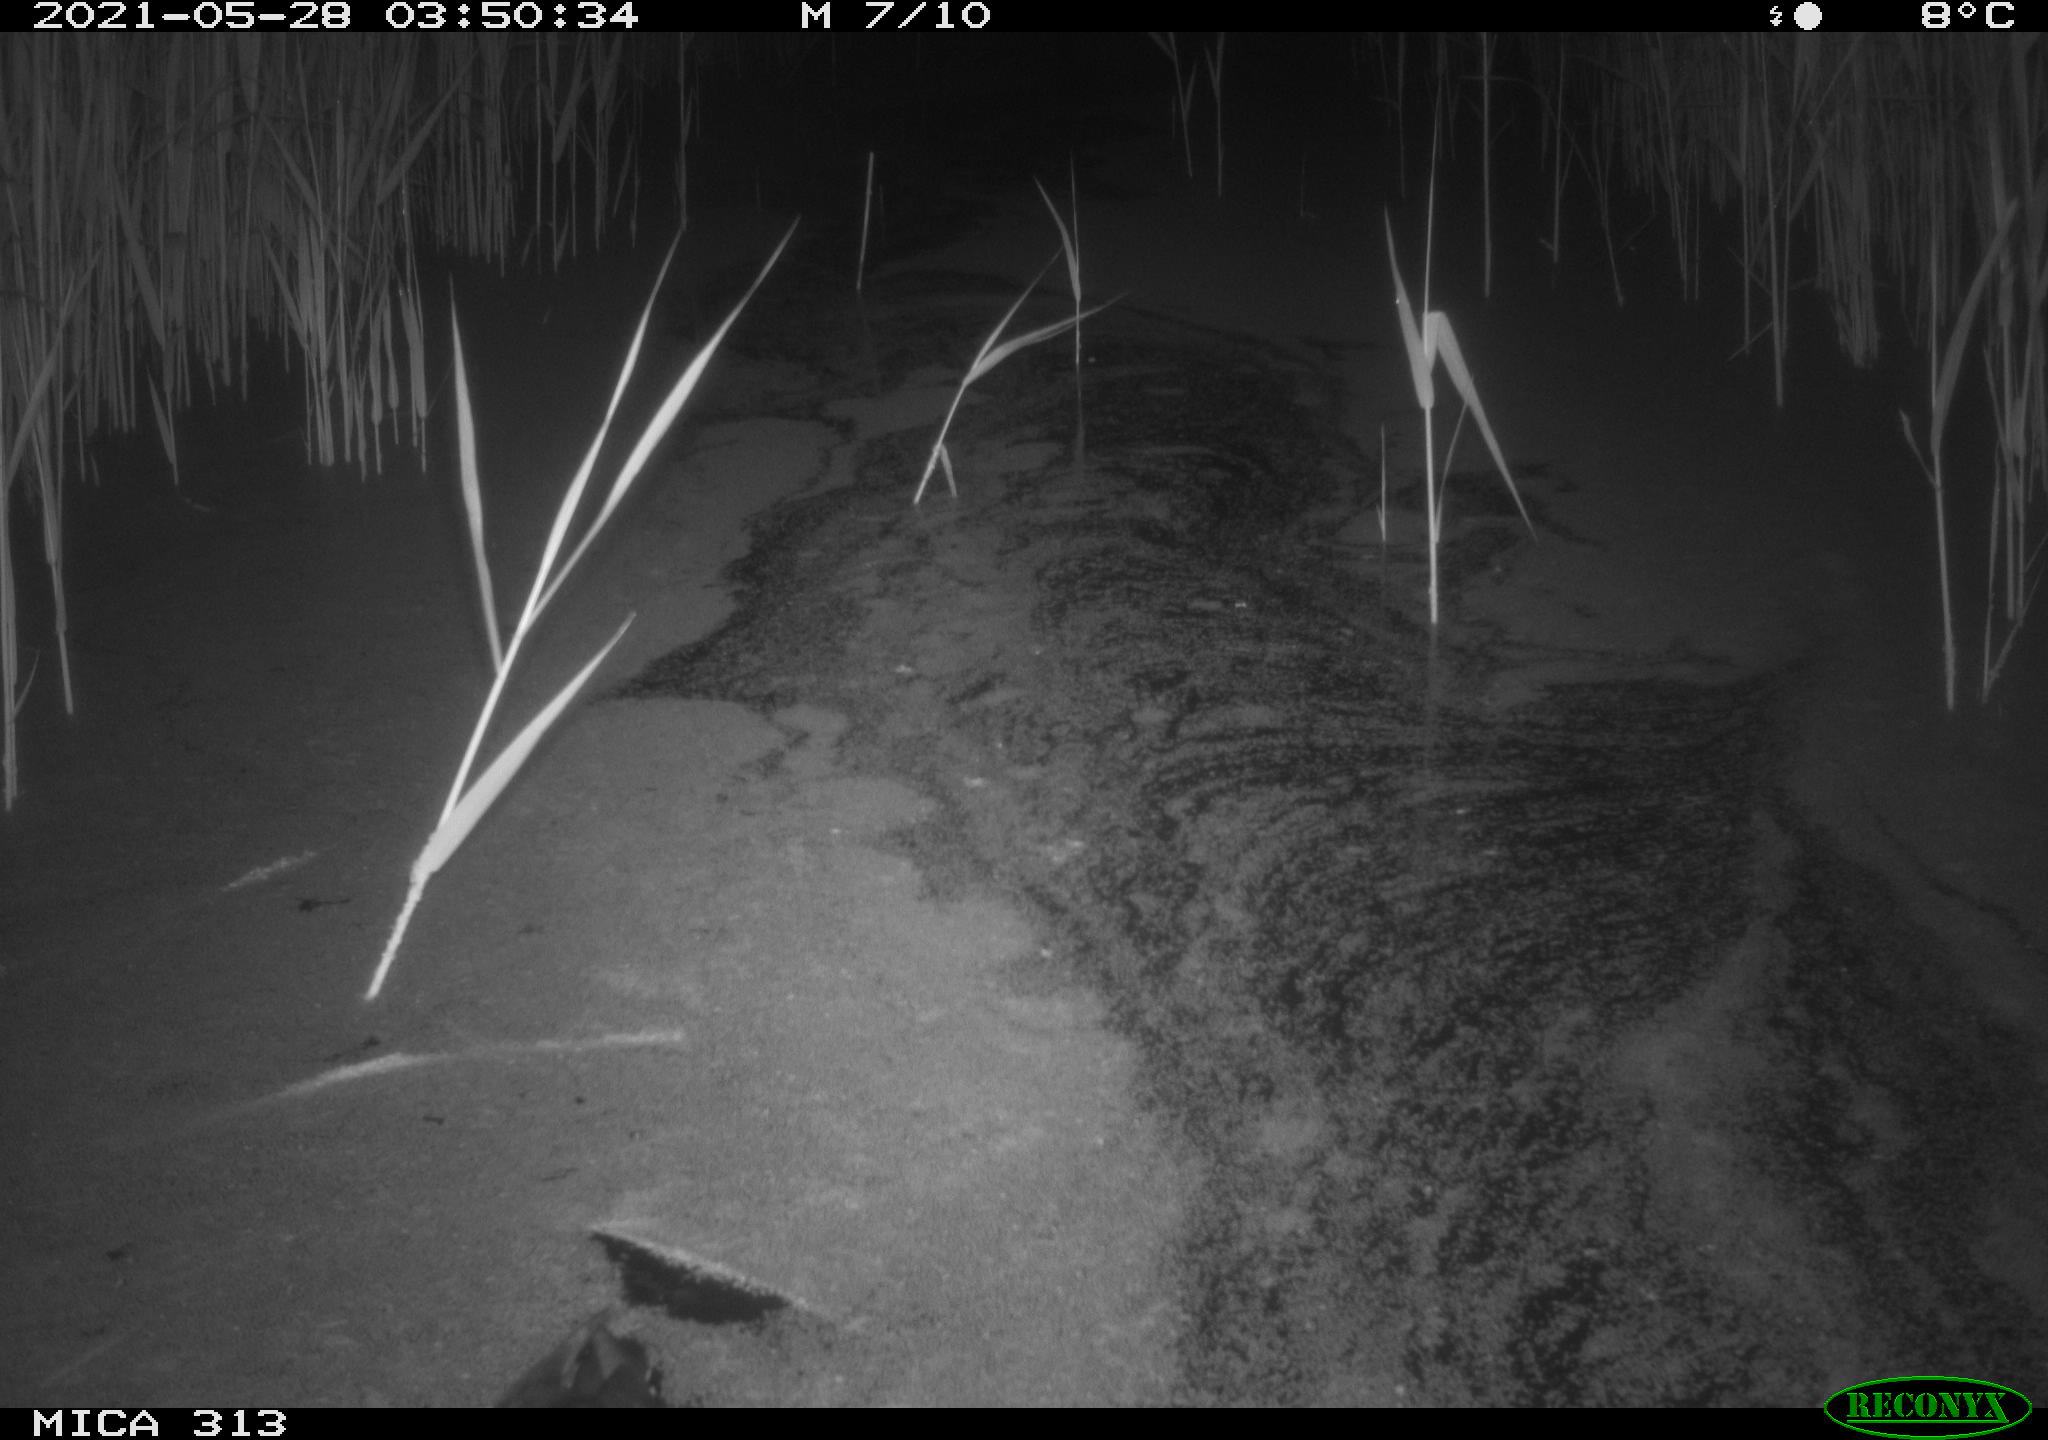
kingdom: Animalia
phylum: Chordata
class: Aves
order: Gruiformes
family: Rallidae
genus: Fulica
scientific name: Fulica atra
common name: Eurasian coot
